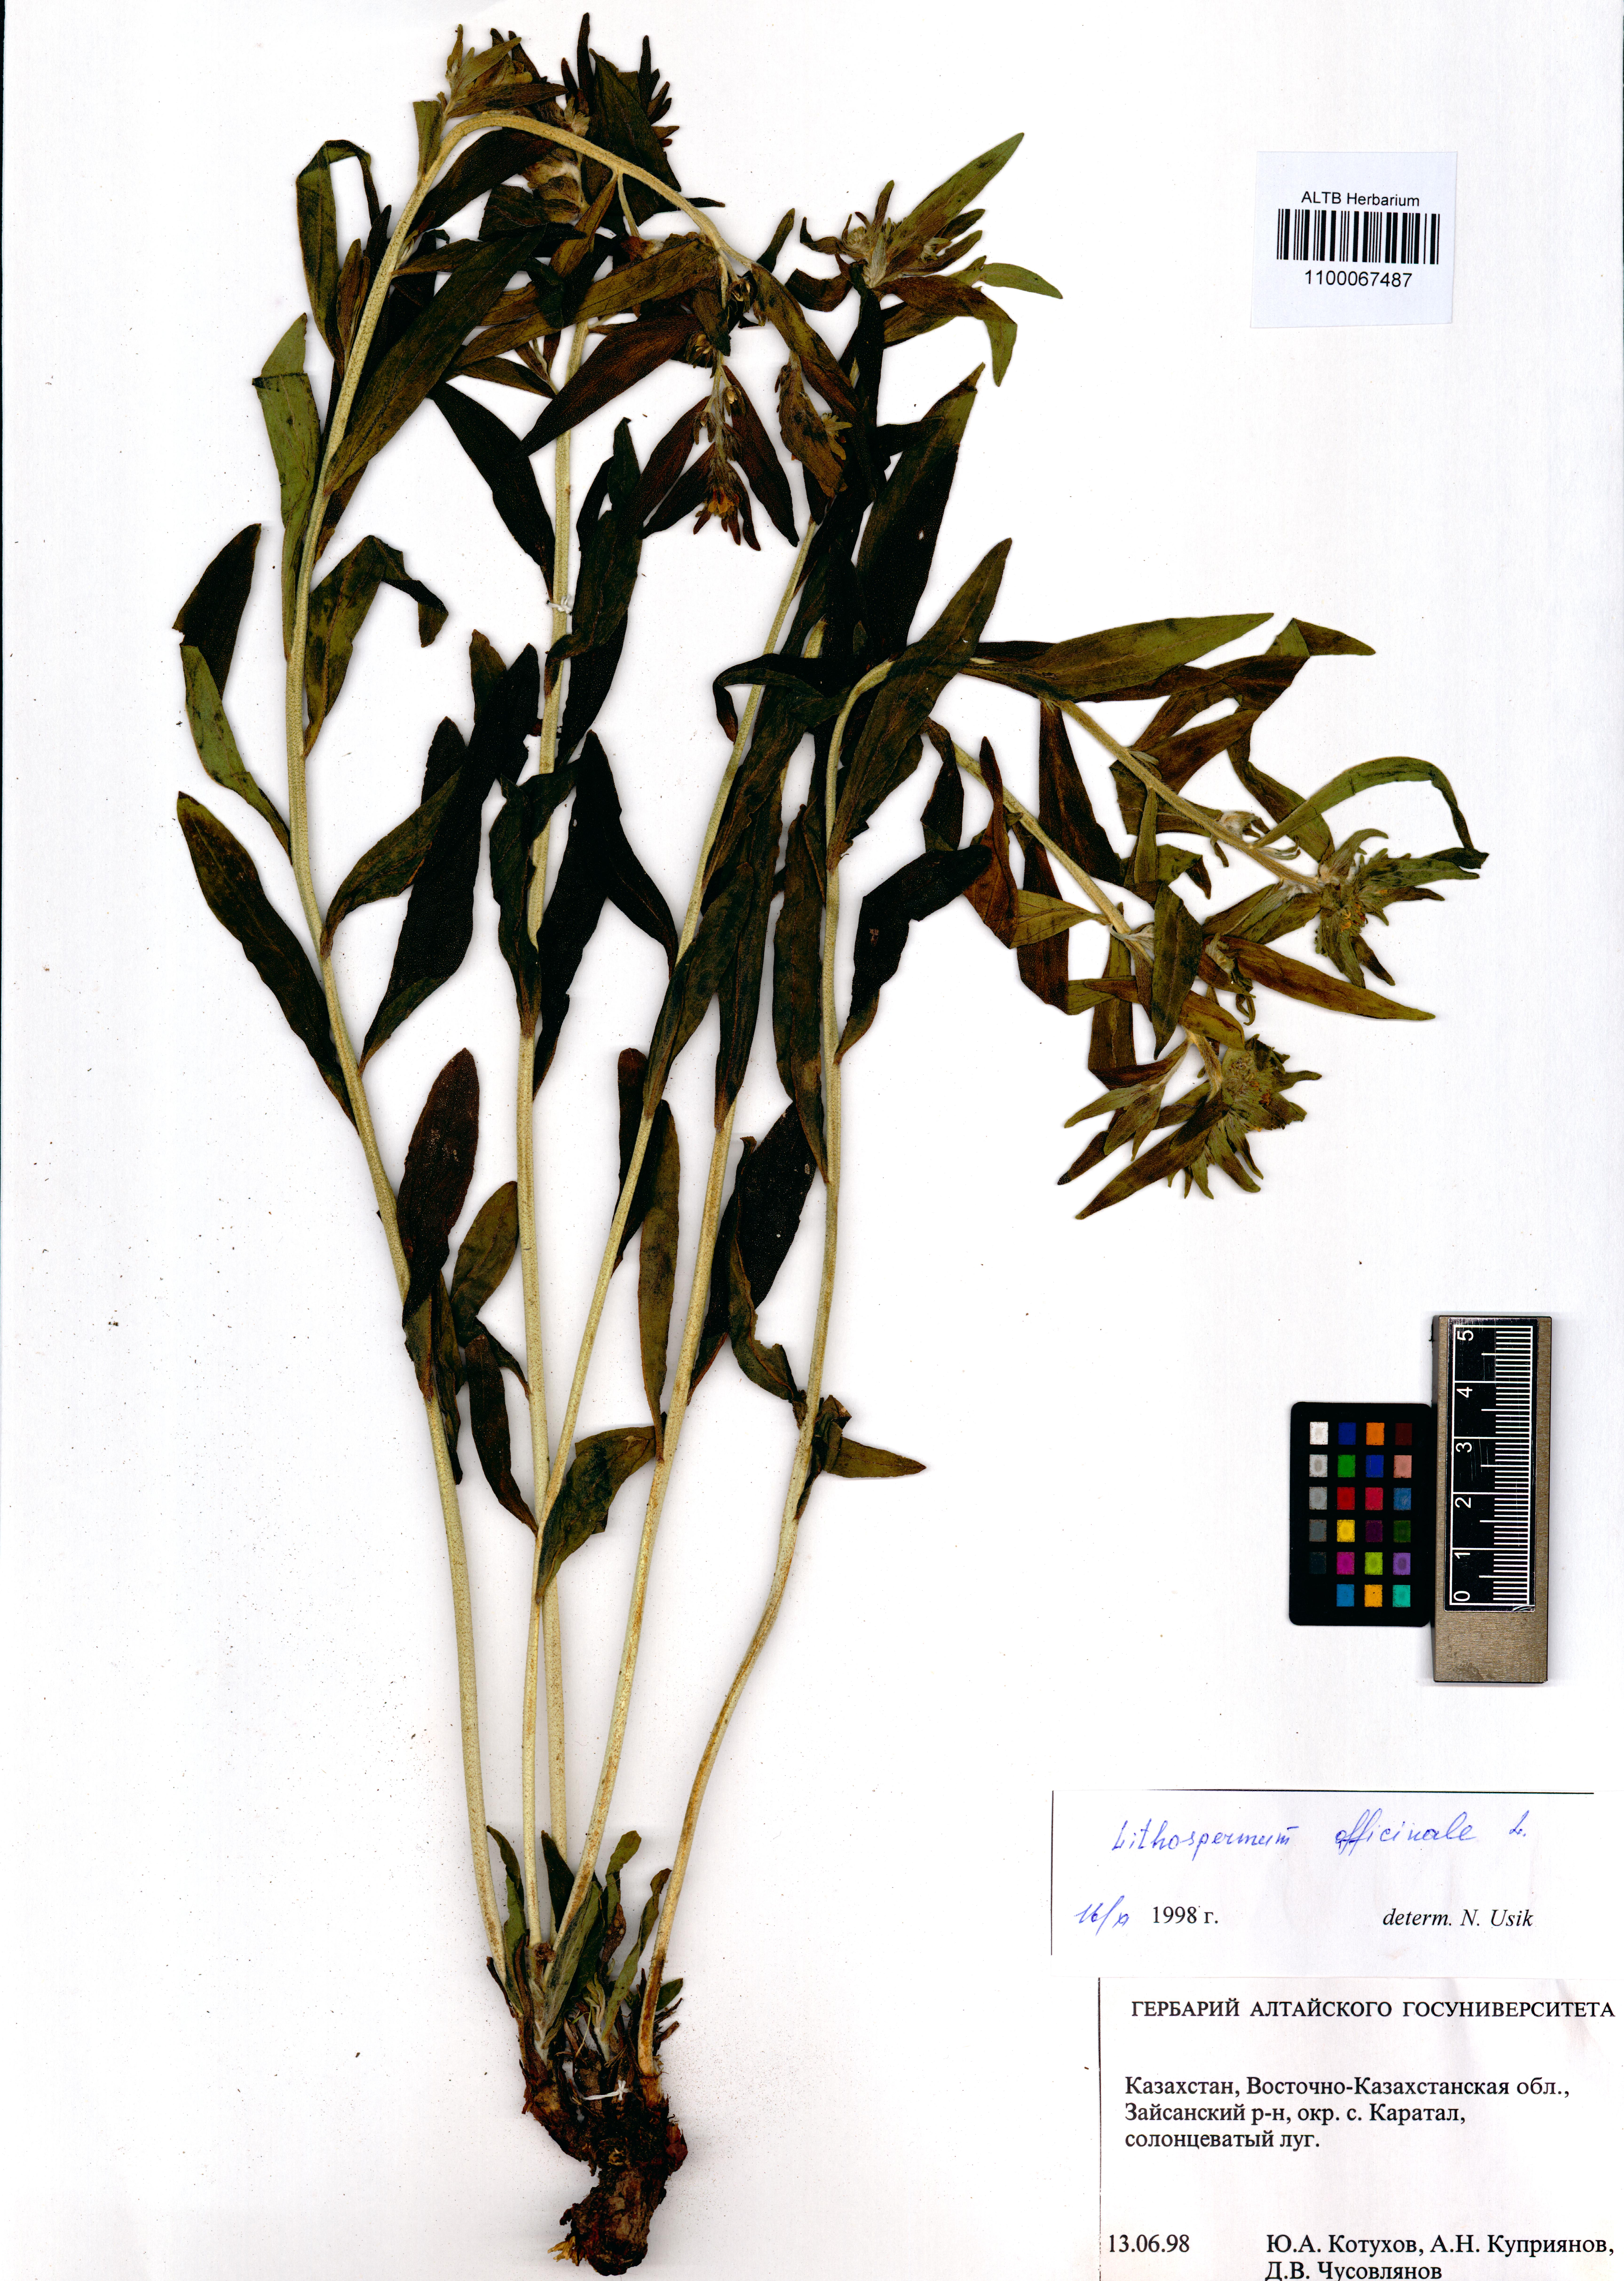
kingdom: Plantae
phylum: Tracheophyta
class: Magnoliopsida
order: Boraginales
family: Boraginaceae
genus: Lithospermum
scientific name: Lithospermum officinale
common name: Common gromwell
